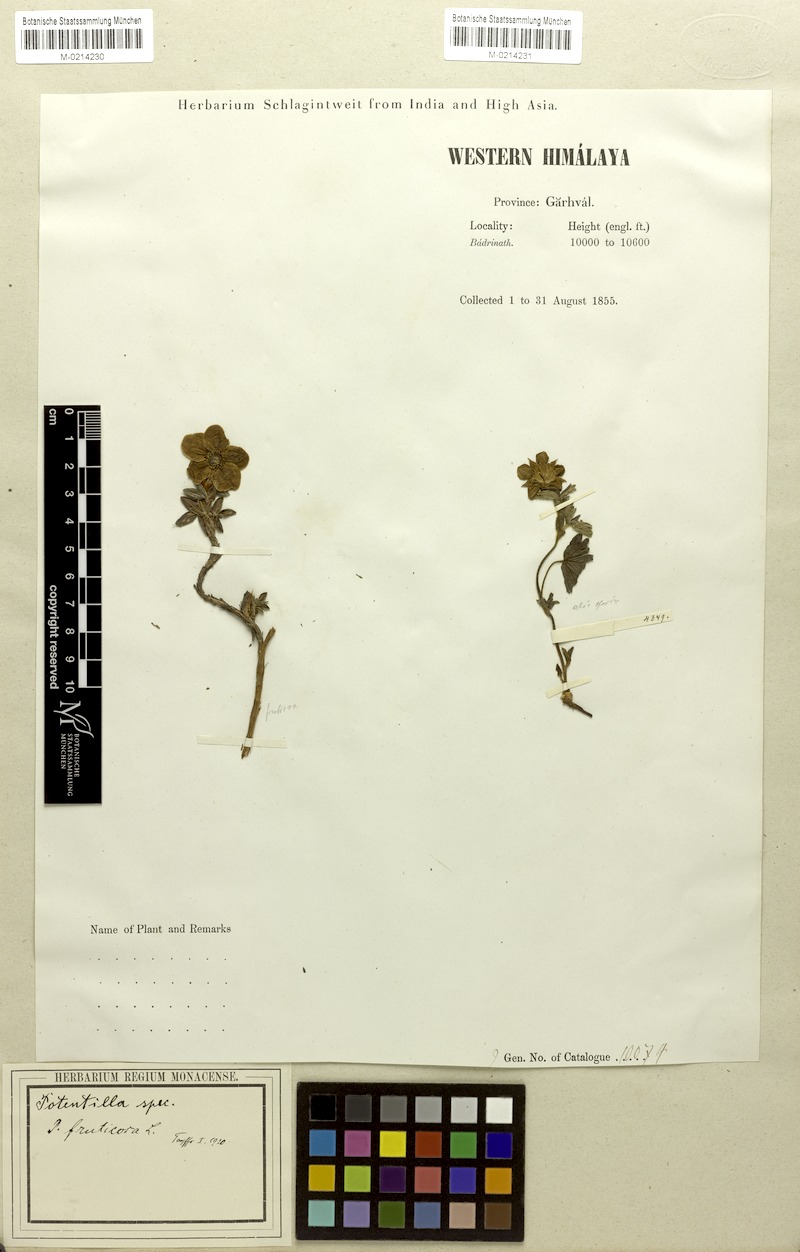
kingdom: Plantae
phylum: Tracheophyta
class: Magnoliopsida
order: Rosales
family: Rosaceae
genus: Dasiphora
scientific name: Dasiphora arbuscula
